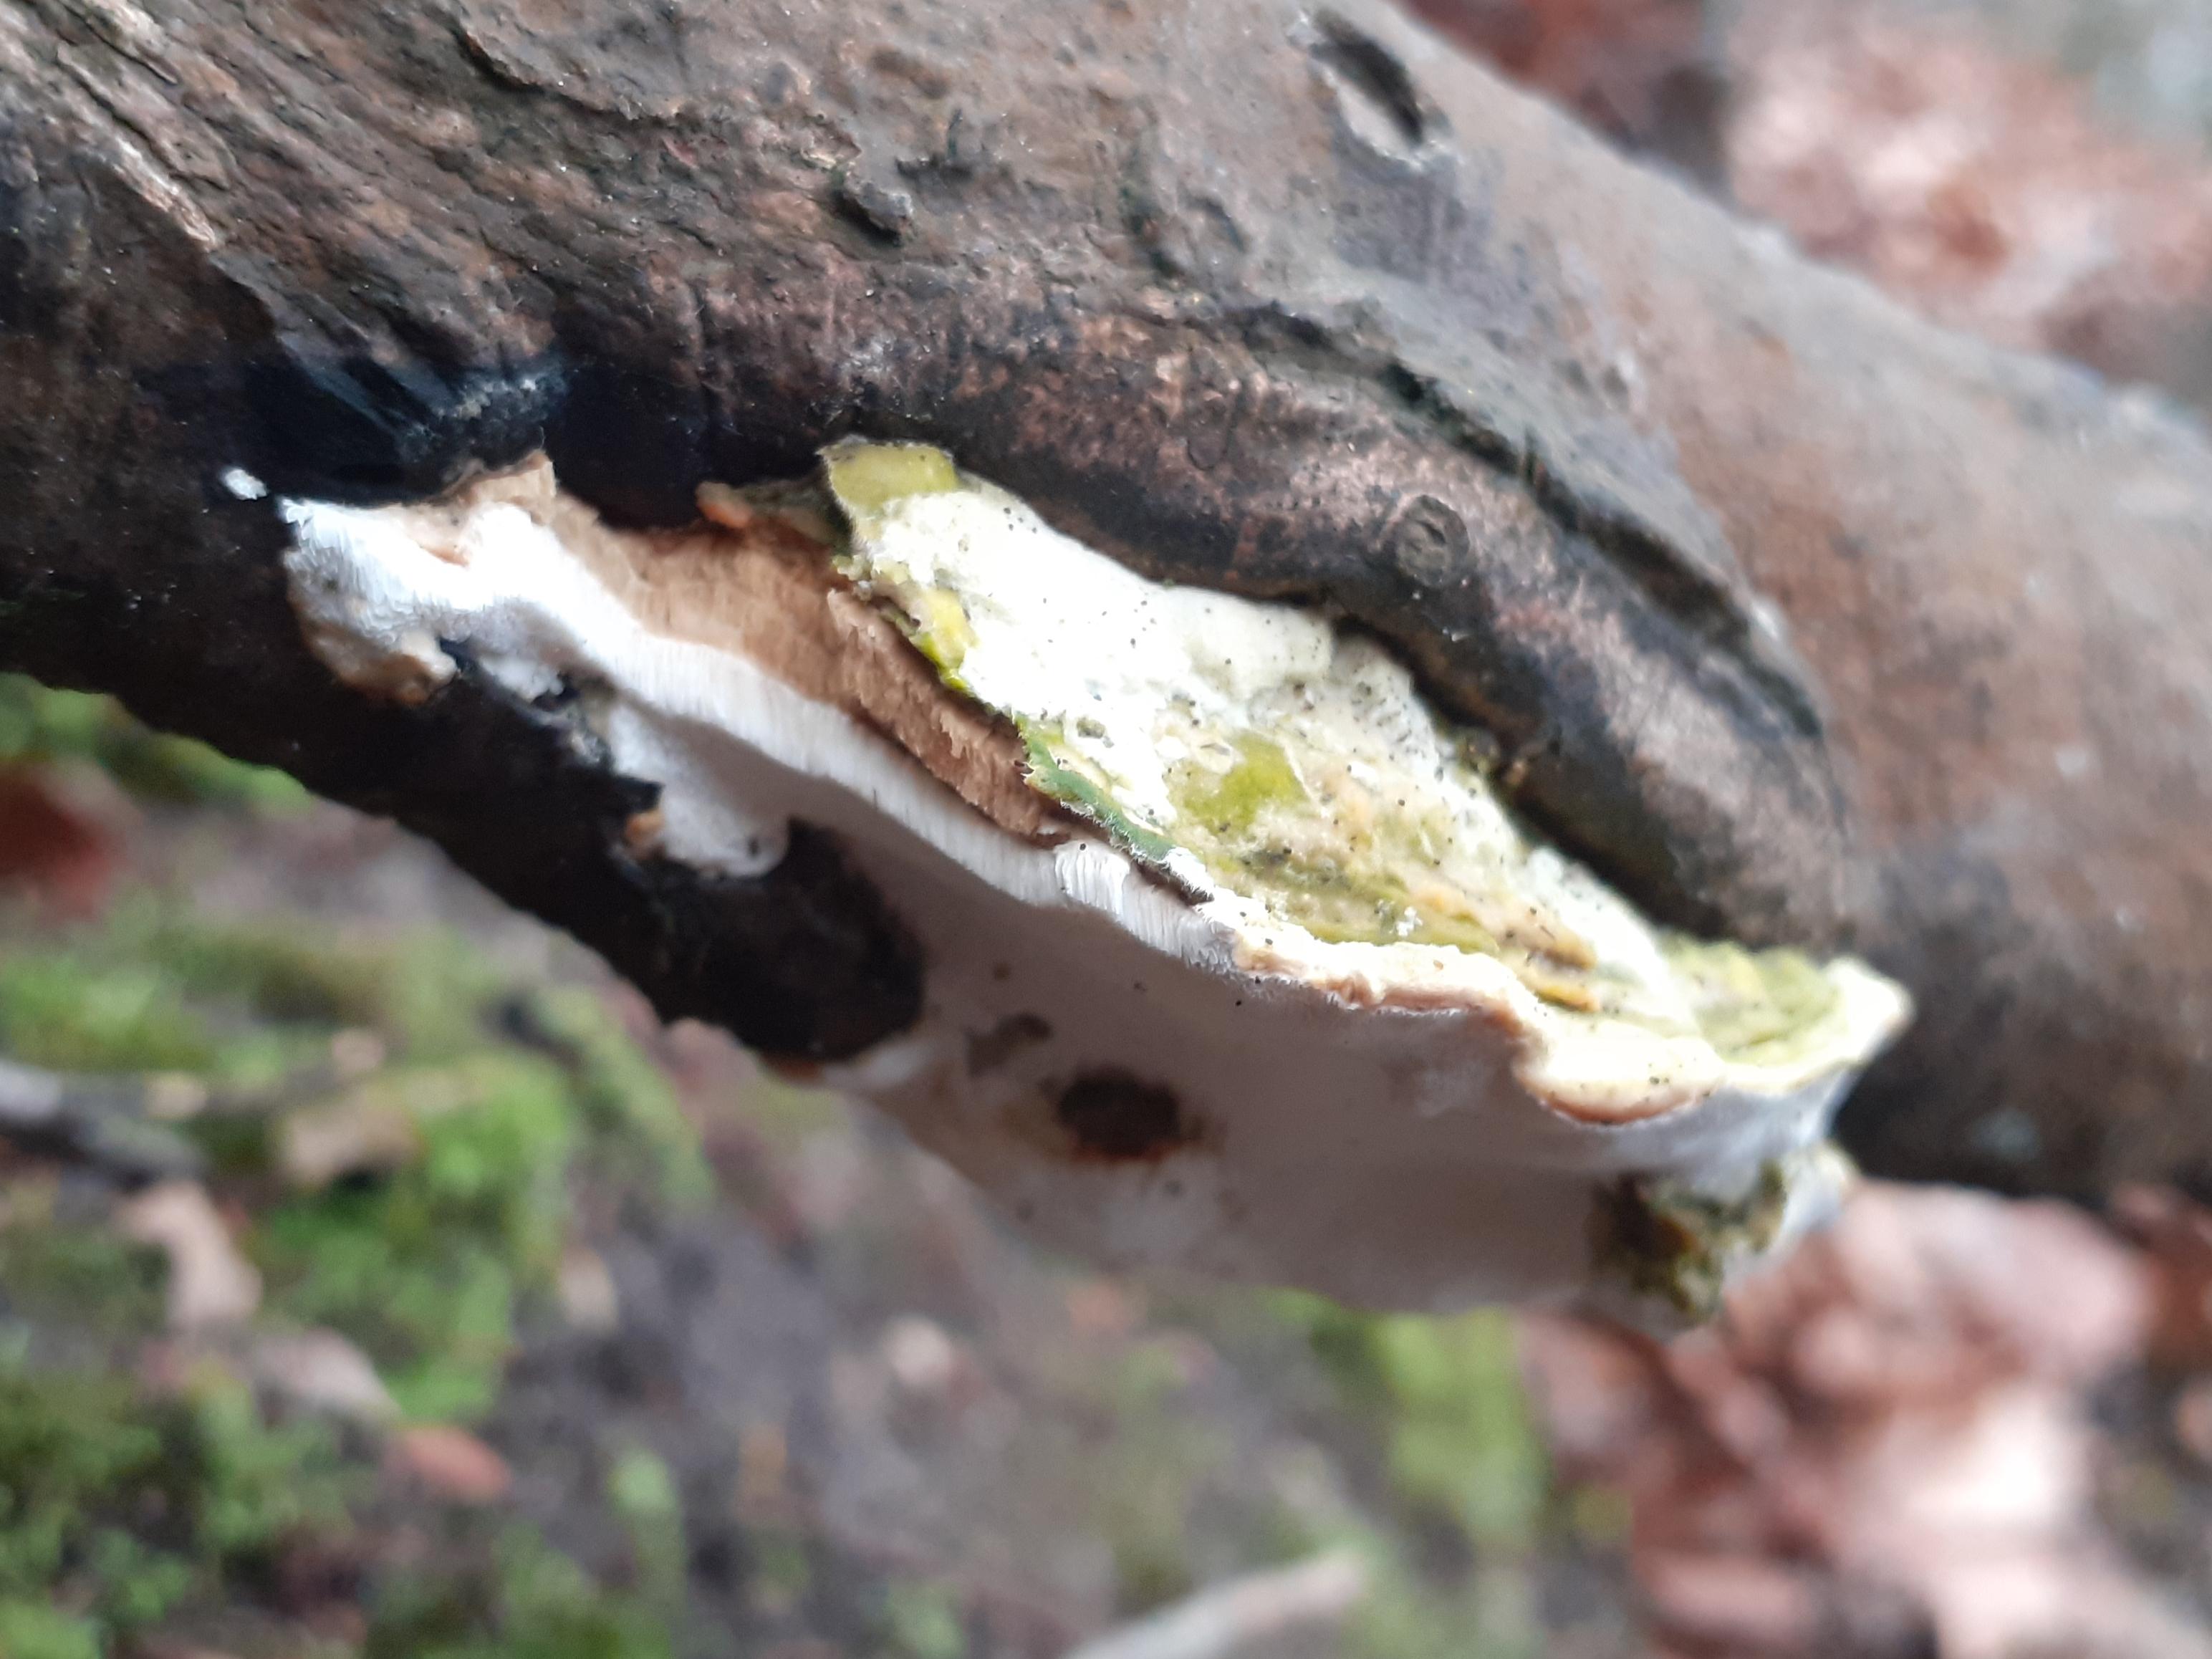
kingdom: Fungi
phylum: Basidiomycota
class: Agaricomycetes
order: Hymenochaetales
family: Oxyporaceae
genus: Oxyporus
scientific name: Oxyporus populinus
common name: sammenvokset trylleporesvamp
